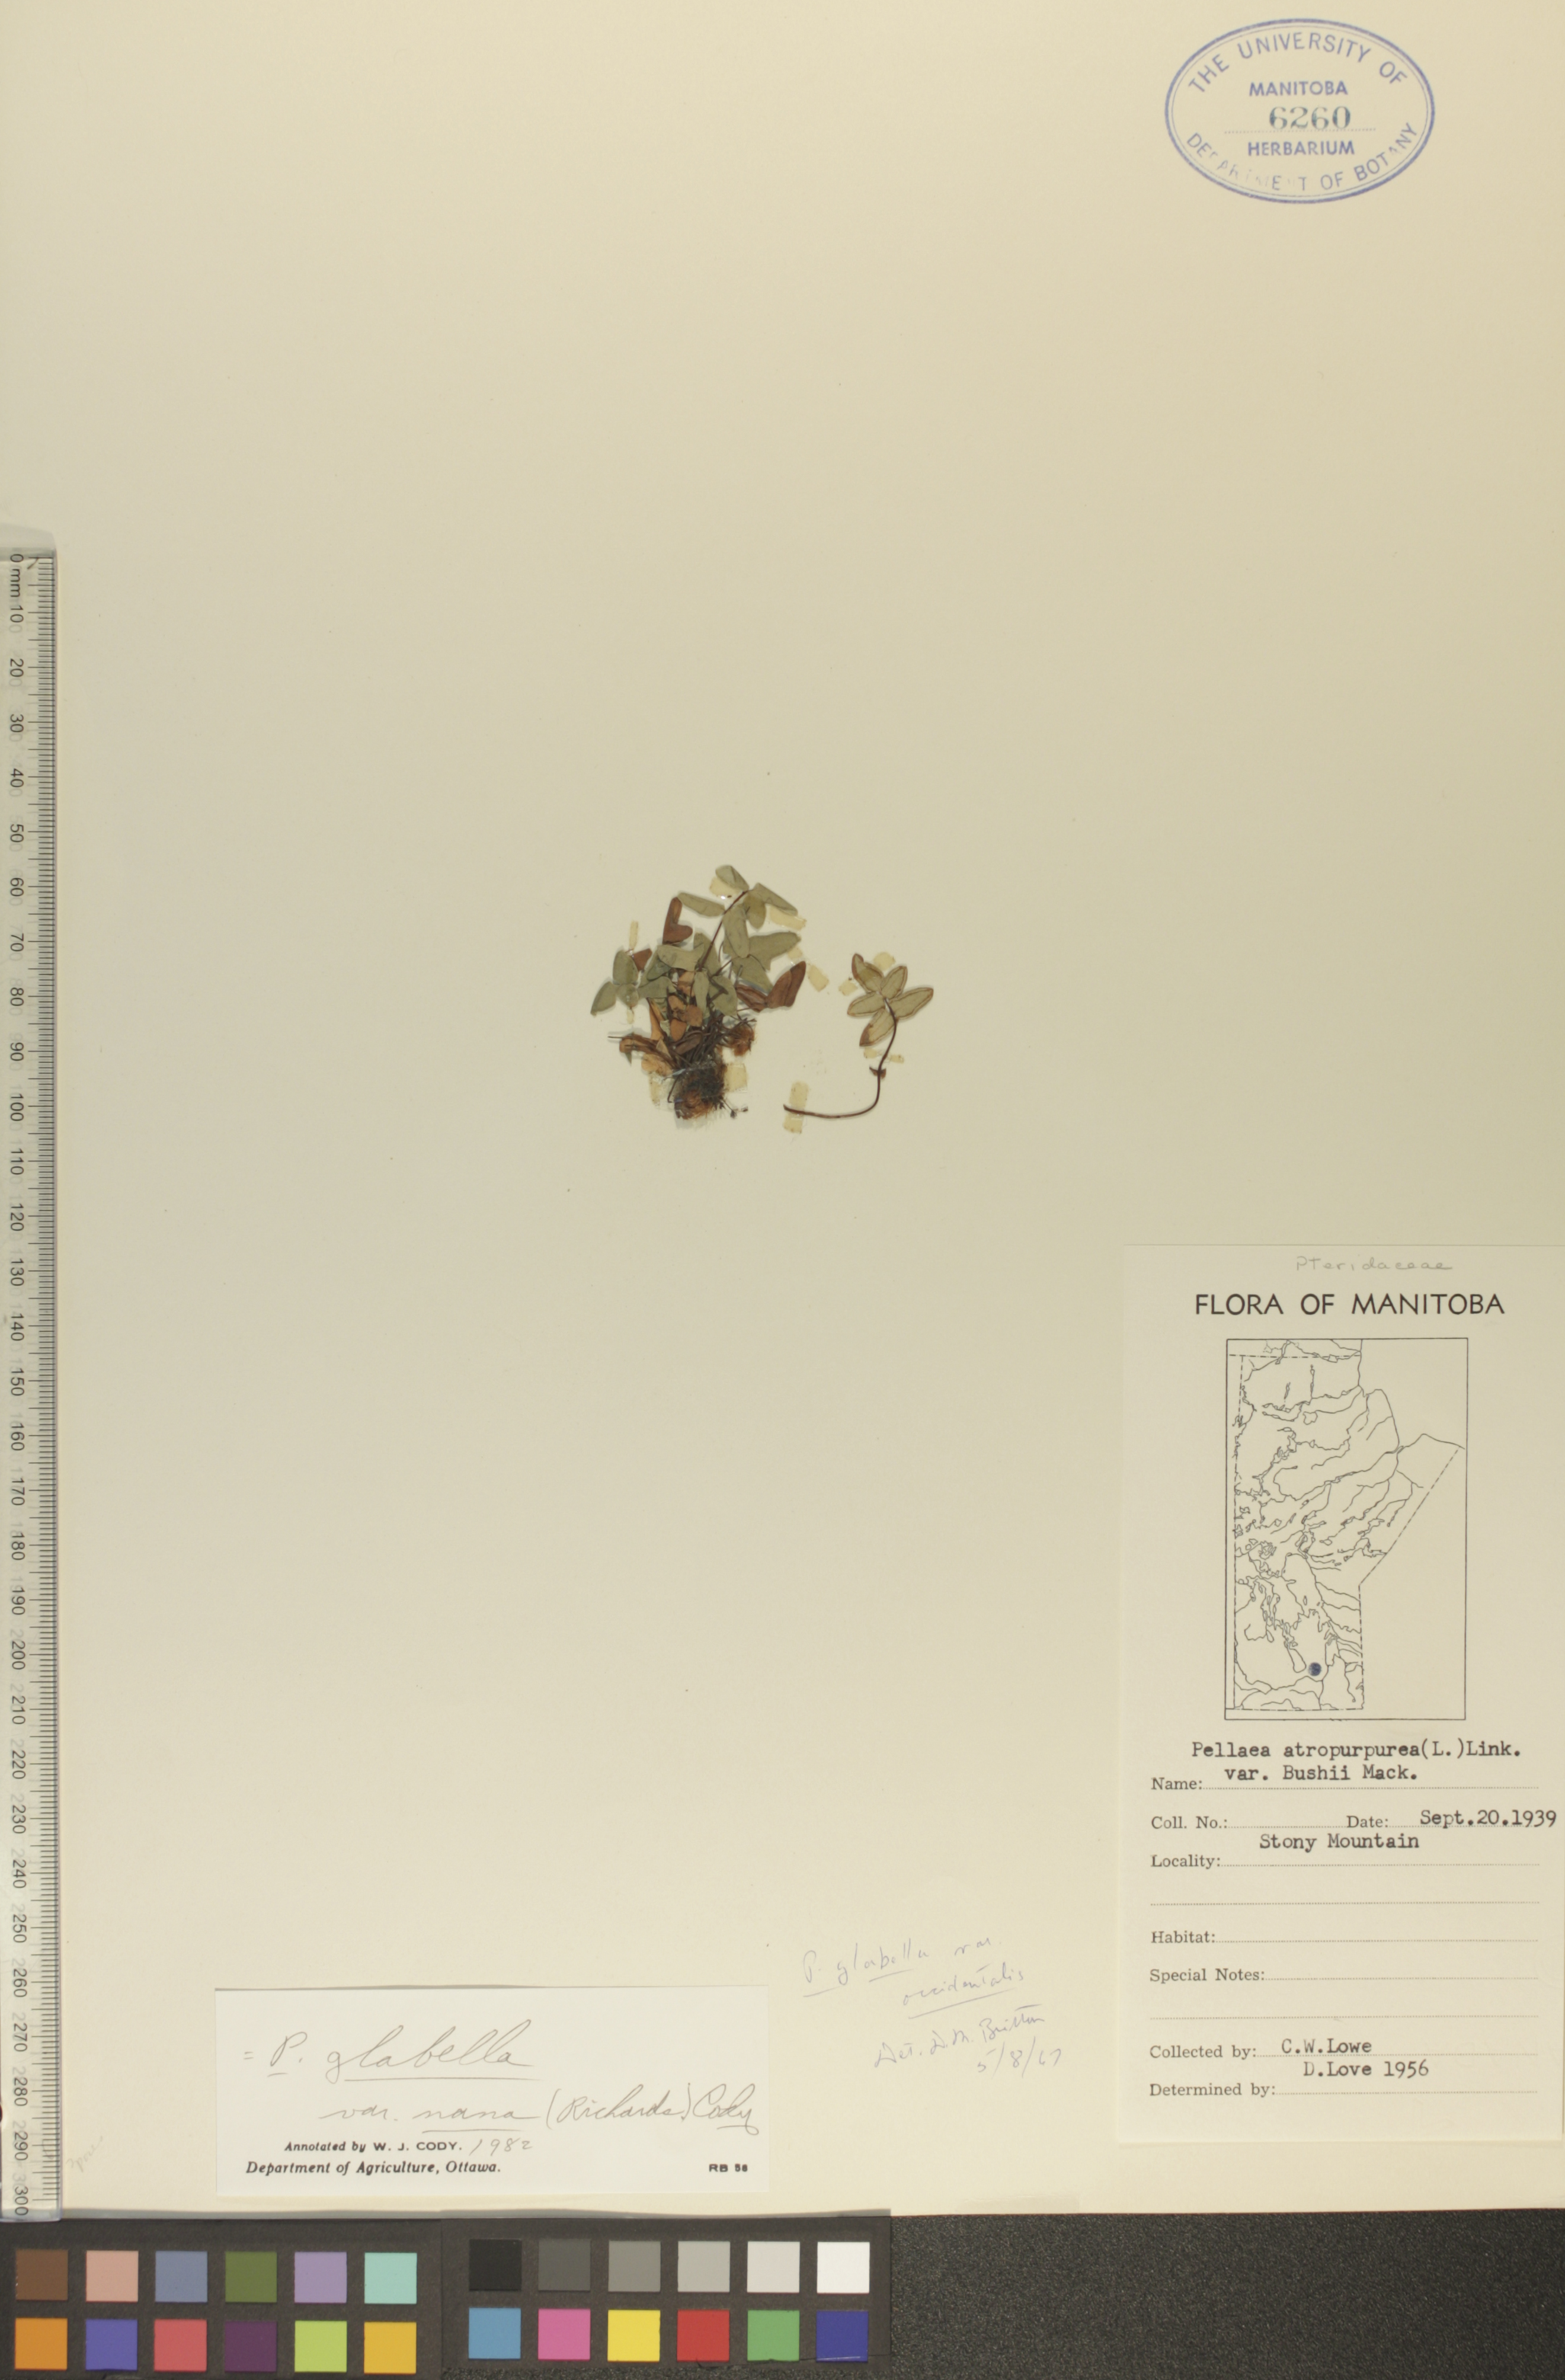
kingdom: Plantae
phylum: Tracheophyta
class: Polypodiopsida
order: Polypodiales
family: Pteridaceae
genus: Pellaea
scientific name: Pellaea glabella
